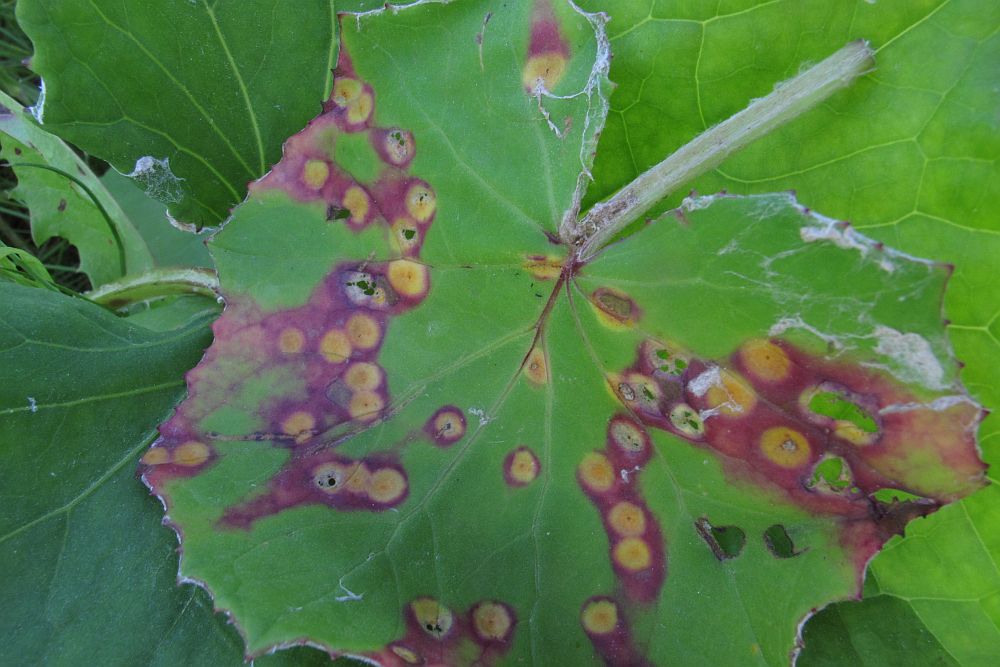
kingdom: Fungi
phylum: Basidiomycota
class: Pucciniomycetes
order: Pucciniales
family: Pucciniaceae
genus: Puccinia
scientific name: Puccinia poarum
